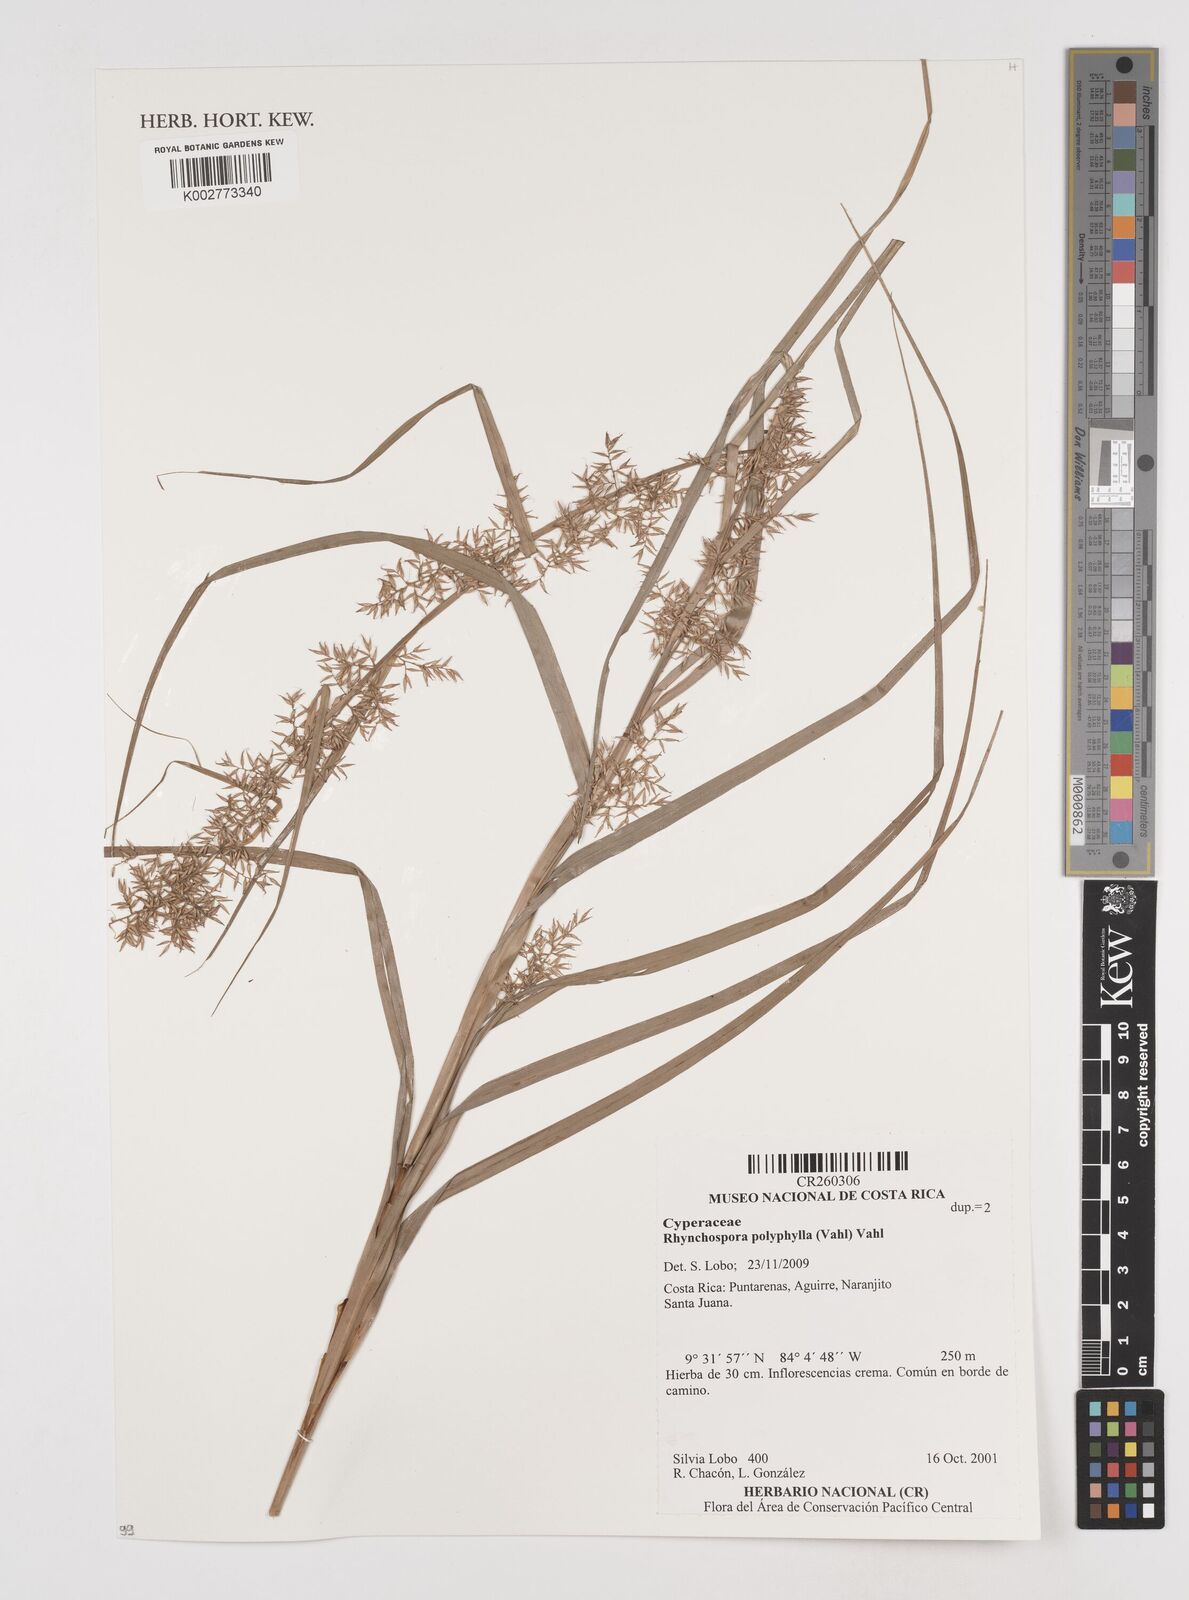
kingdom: Plantae
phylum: Tracheophyta
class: Liliopsida
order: Poales
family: Cyperaceae
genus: Rhynchospora
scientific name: Rhynchospora polyphylla
